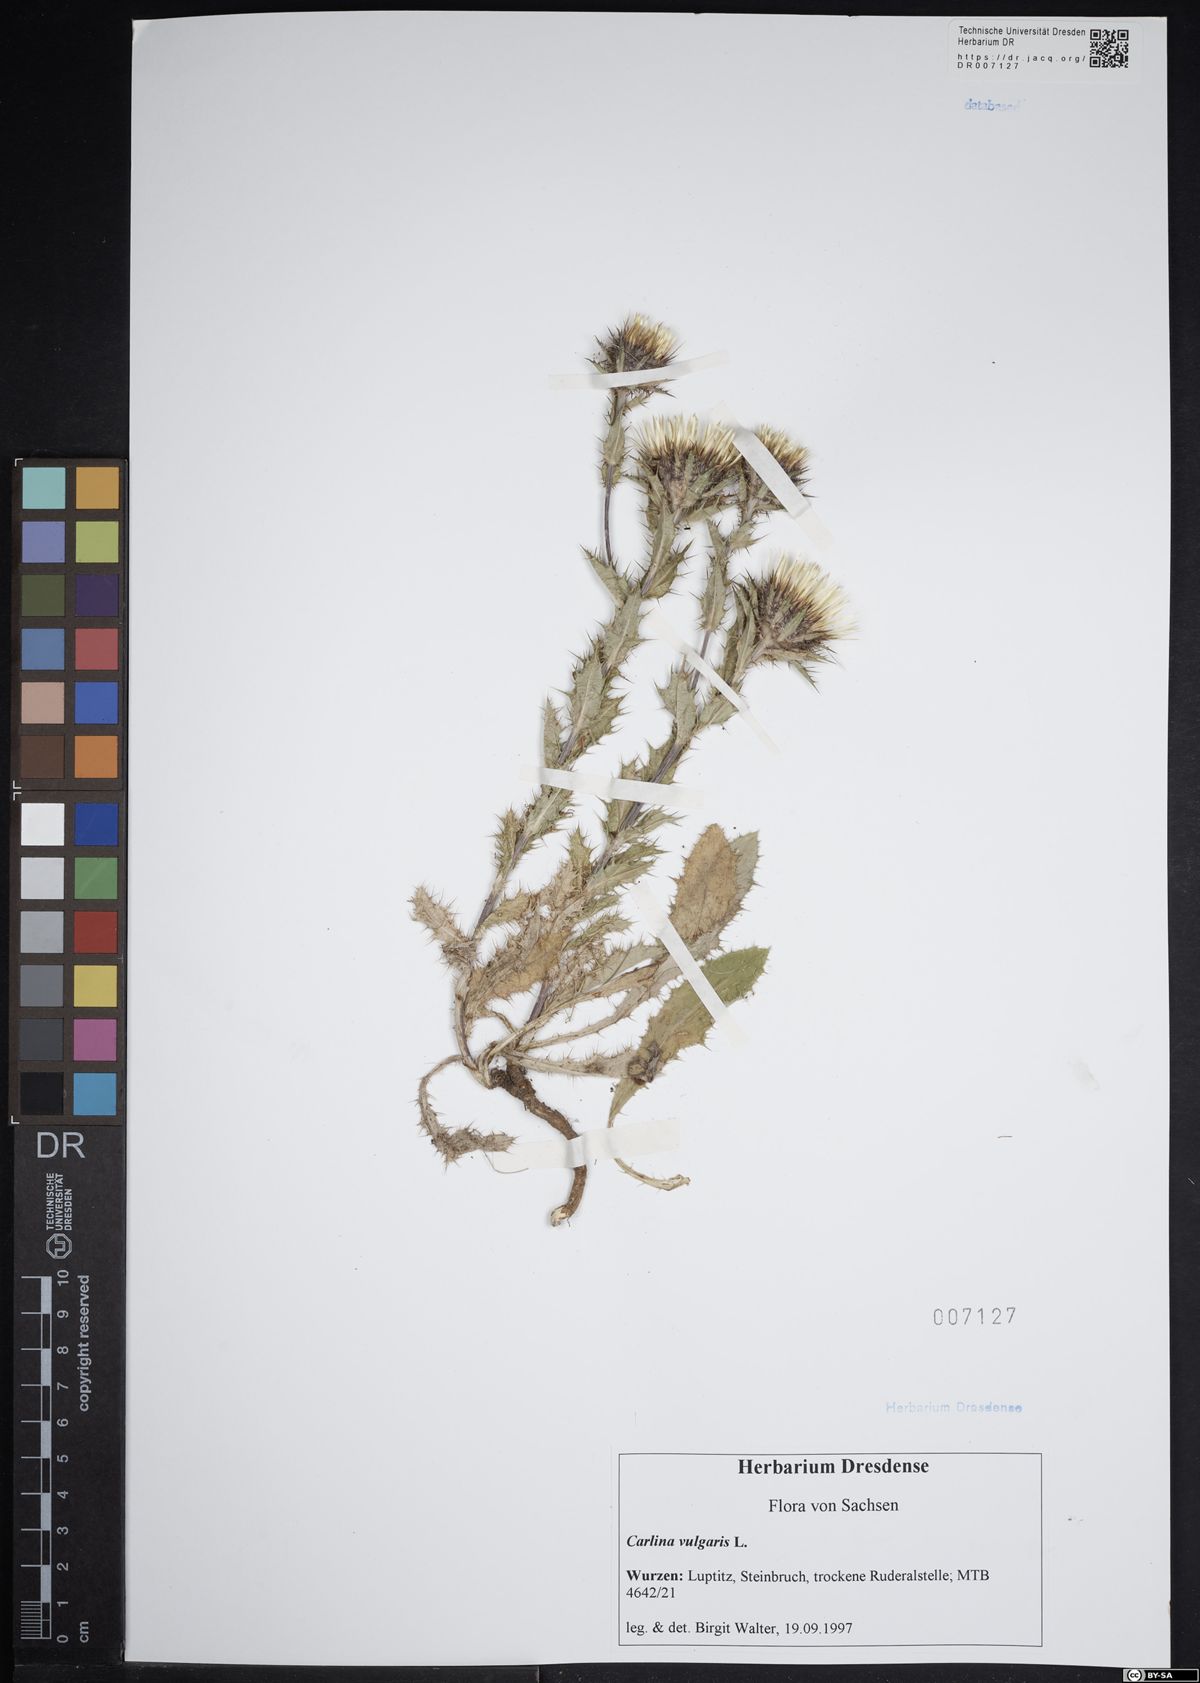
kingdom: Plantae
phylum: Tracheophyta
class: Magnoliopsida
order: Asterales
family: Asteraceae
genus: Carlina
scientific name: Carlina vulgaris
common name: Carline thistle
